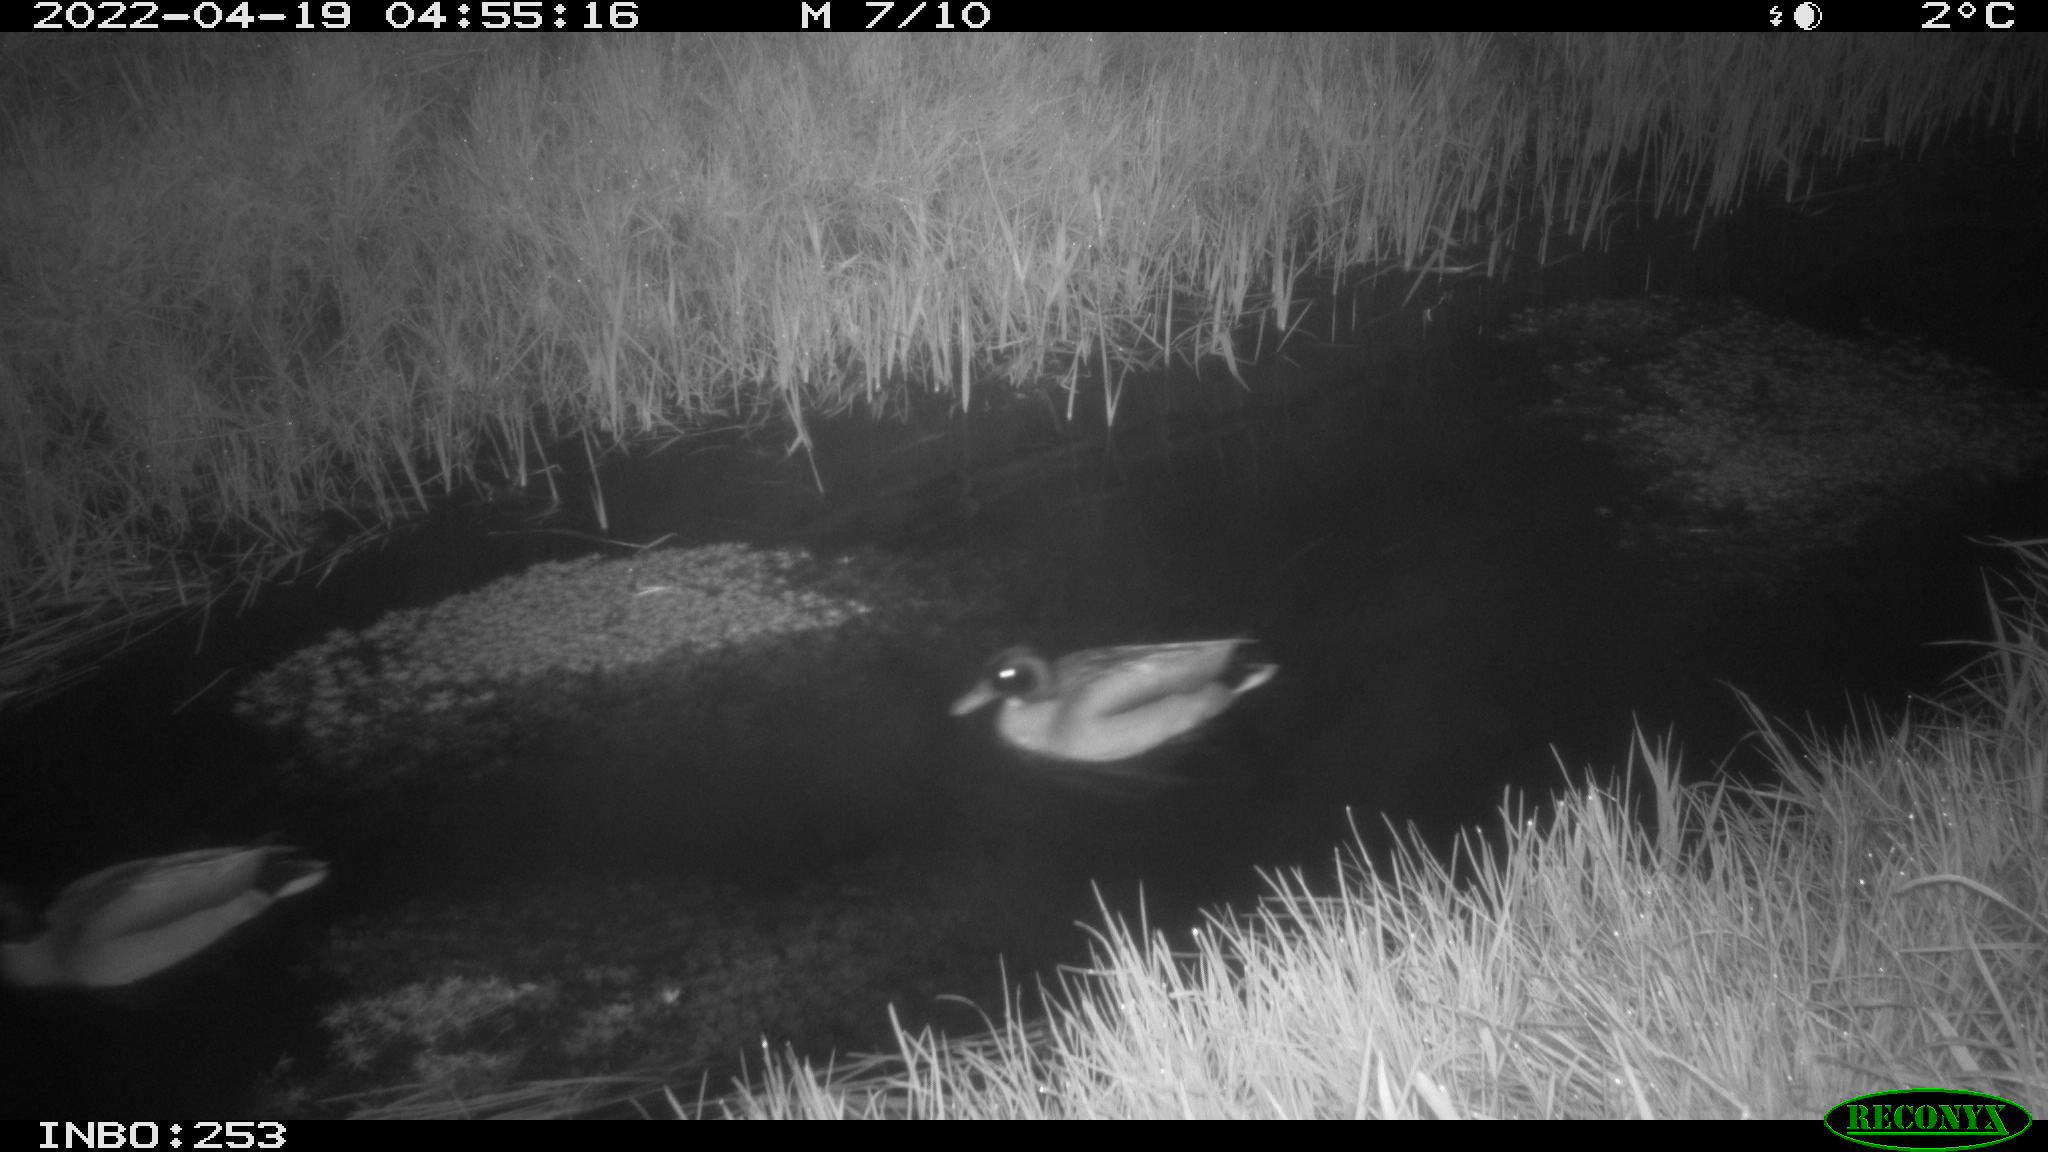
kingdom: Animalia
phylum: Chordata
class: Aves
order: Anseriformes
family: Anatidae
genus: Anas
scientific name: Anas platyrhynchos
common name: Mallard
